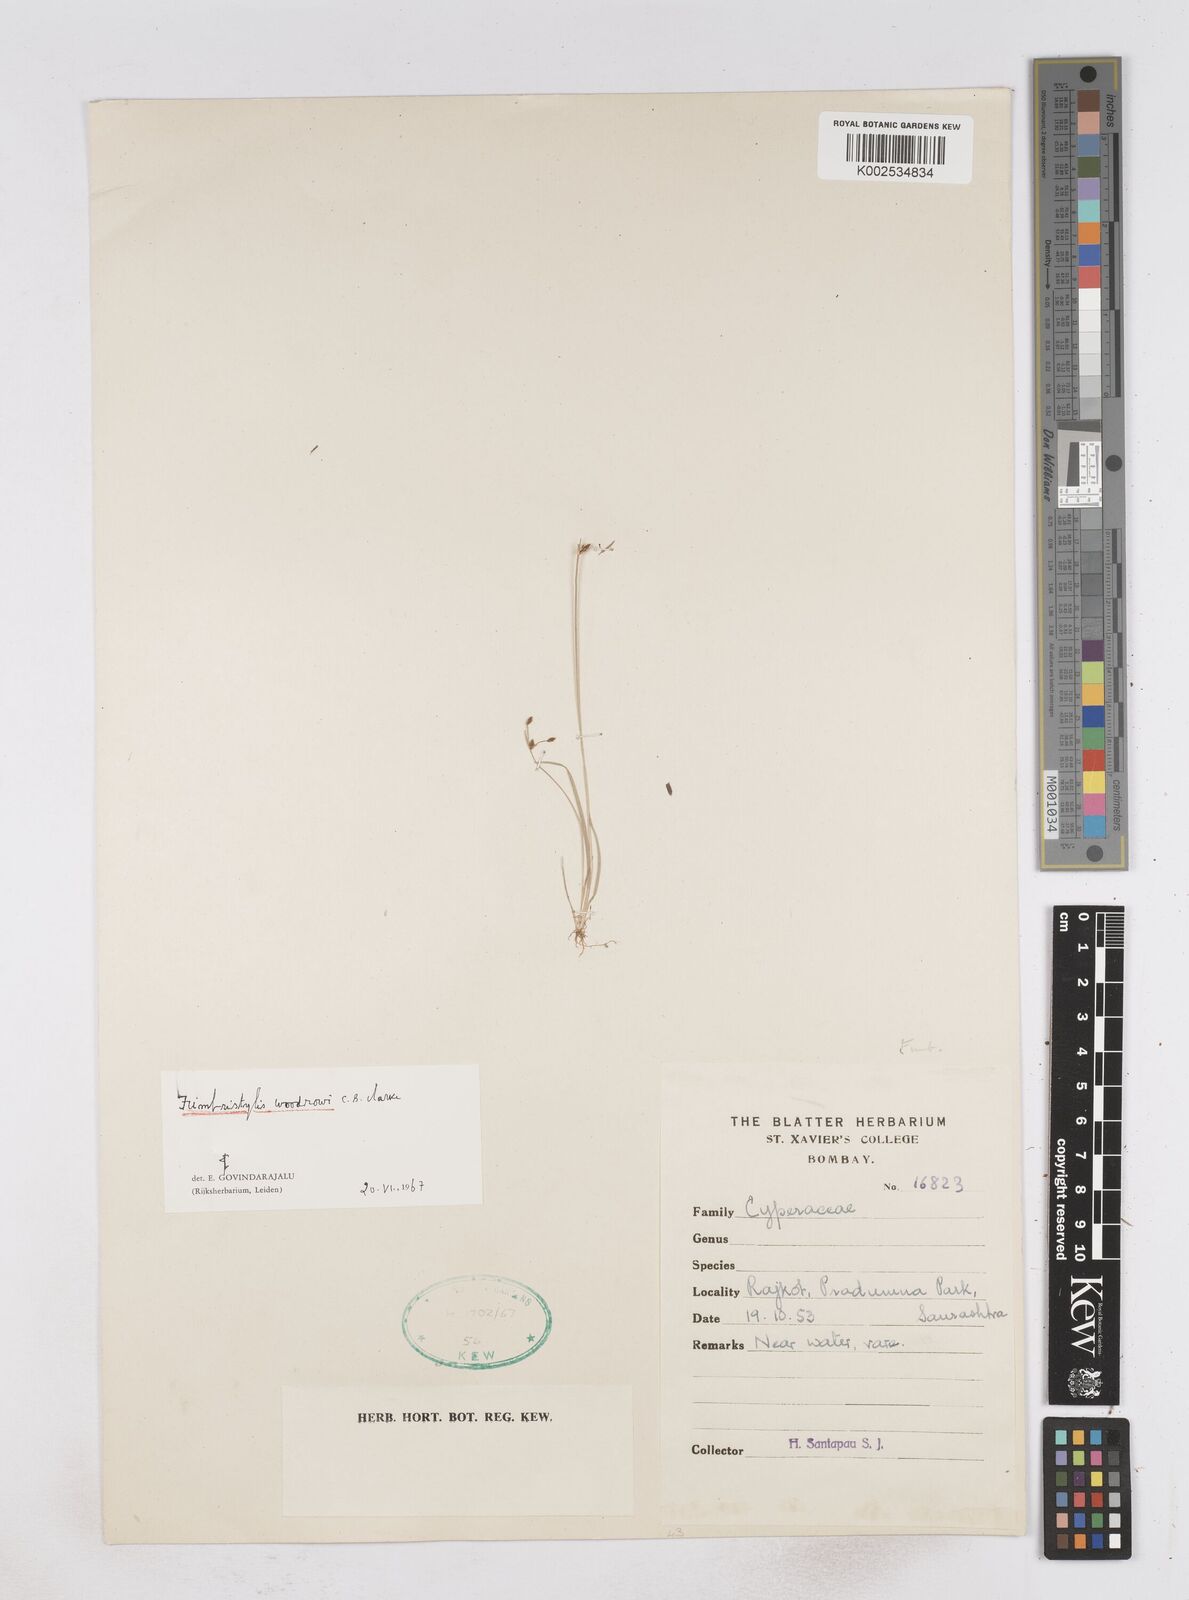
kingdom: Plantae
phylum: Tracheophyta
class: Liliopsida
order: Poales
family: Cyperaceae
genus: Fimbristylis
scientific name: Fimbristylis woodrowii
